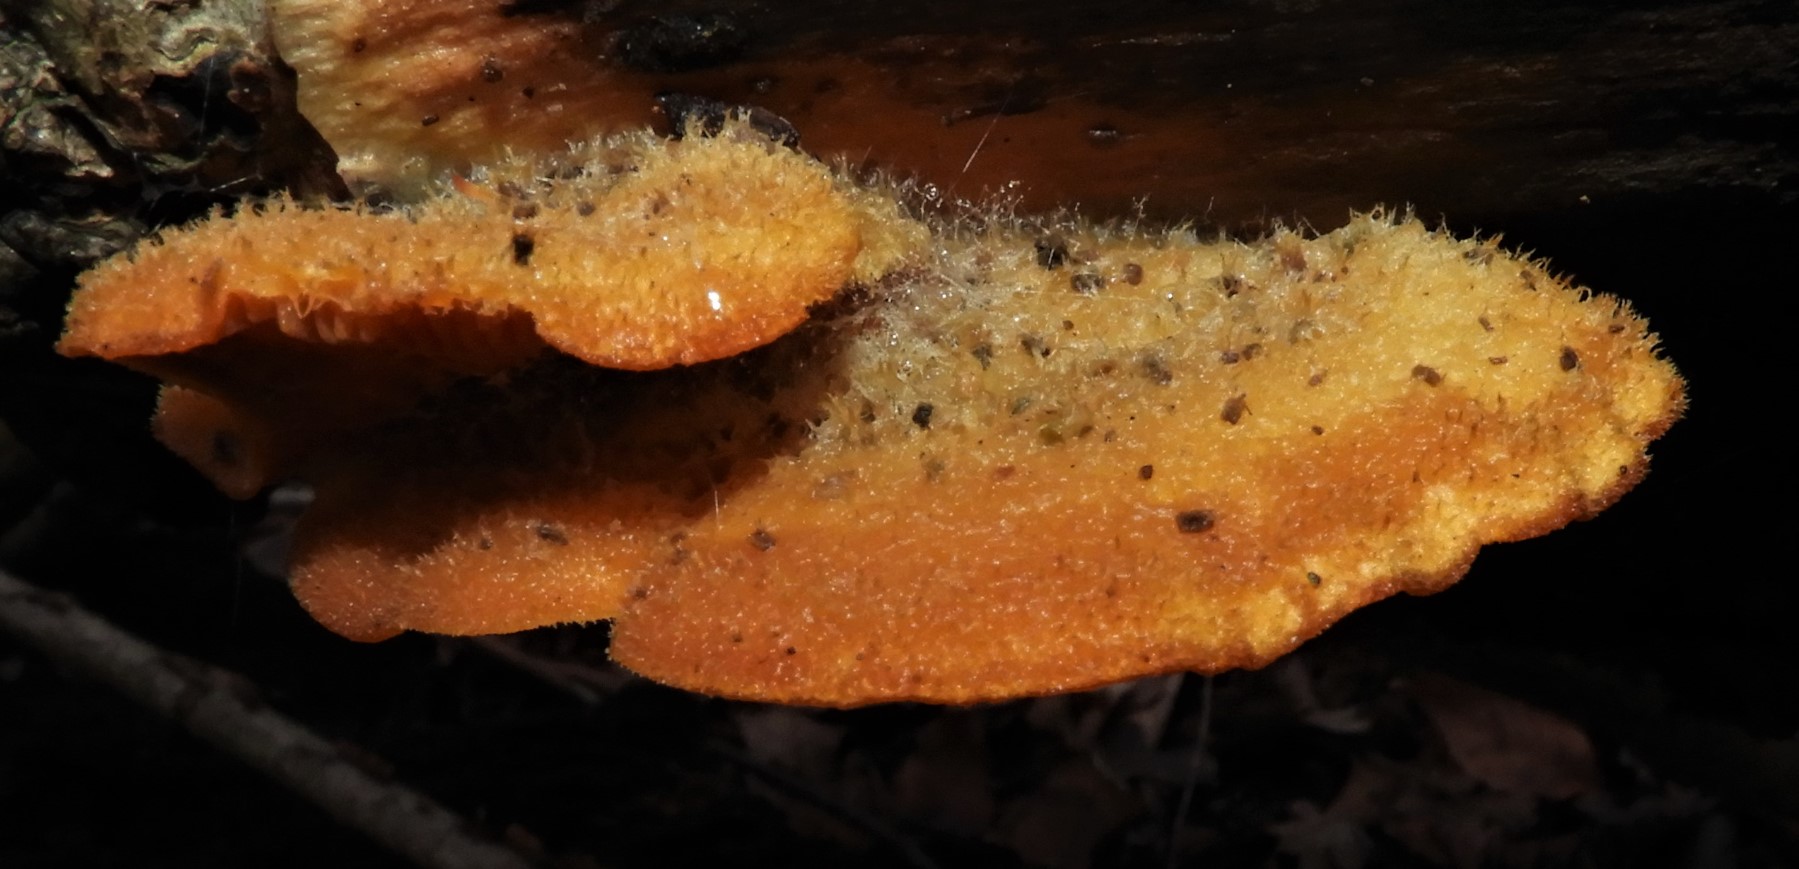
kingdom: Fungi
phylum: Basidiomycota
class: Agaricomycetes
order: Agaricales
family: Phyllotopsidaceae
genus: Phyllotopsis
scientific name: Phyllotopsis nidulans
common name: okkerblad
